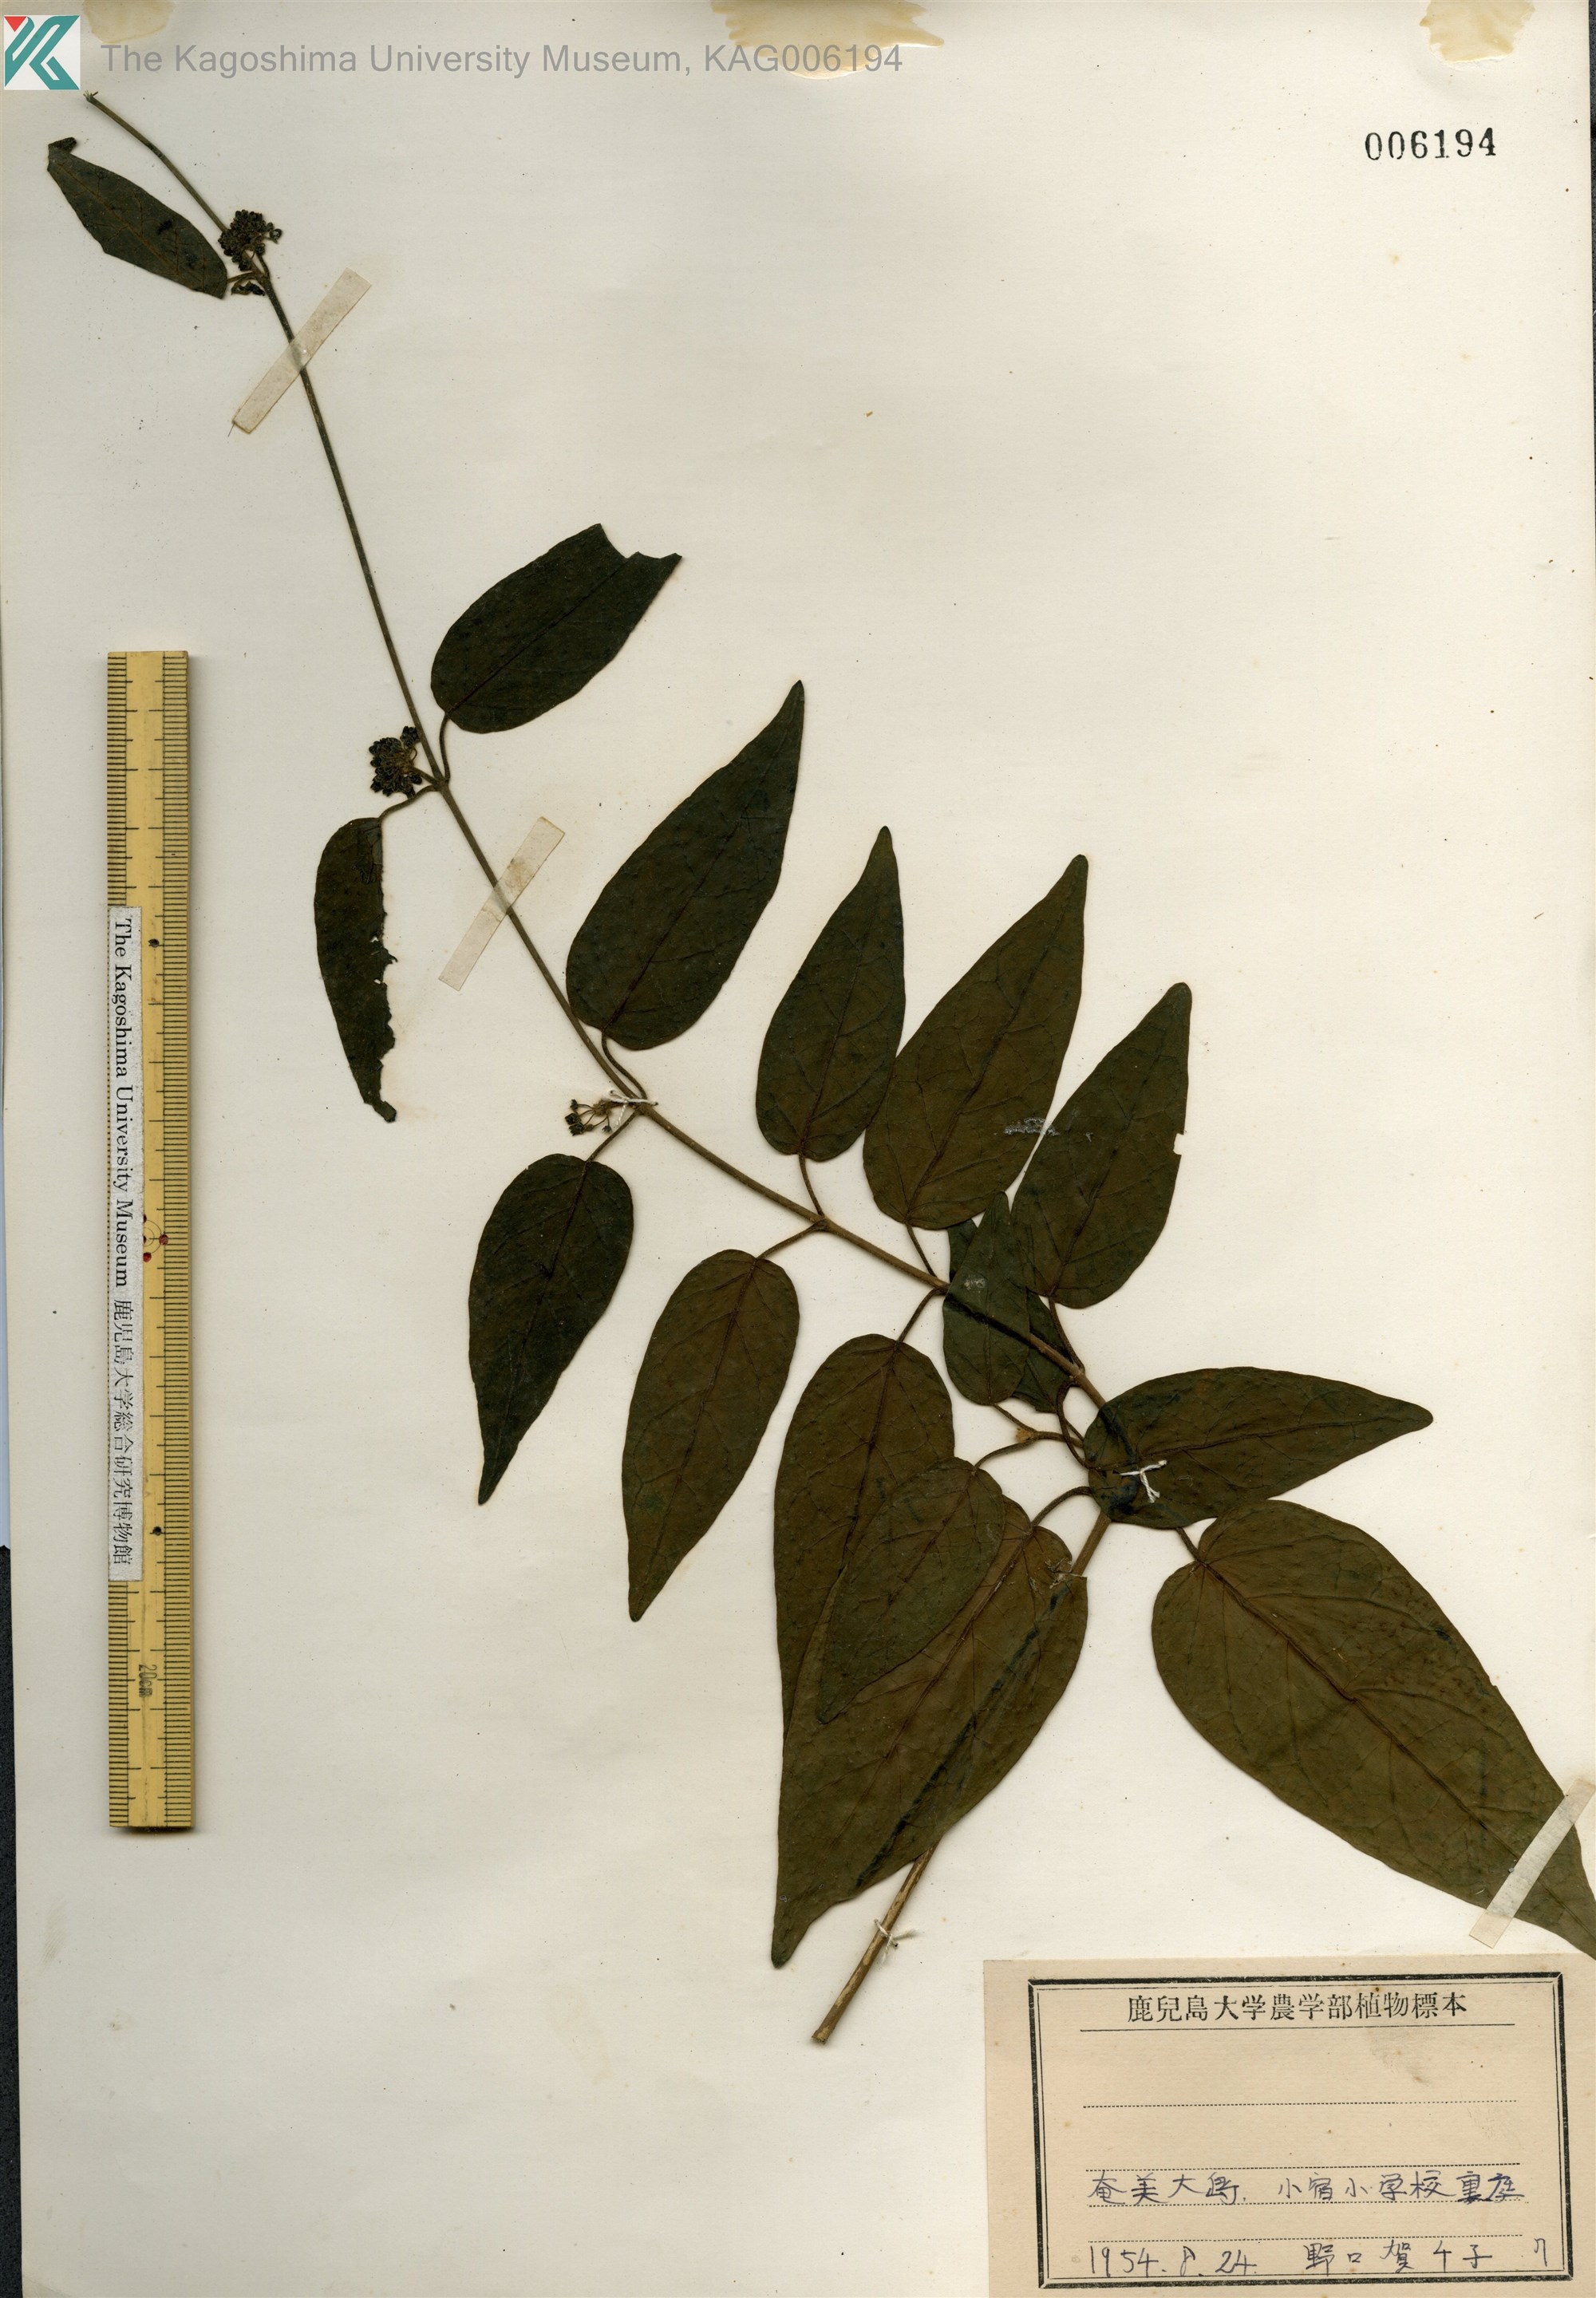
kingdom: Plantae
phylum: Tracheophyta
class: Magnoliopsida
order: Gentianales
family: Apocynaceae
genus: Marsdenia
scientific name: Marsdenia tinctoria
